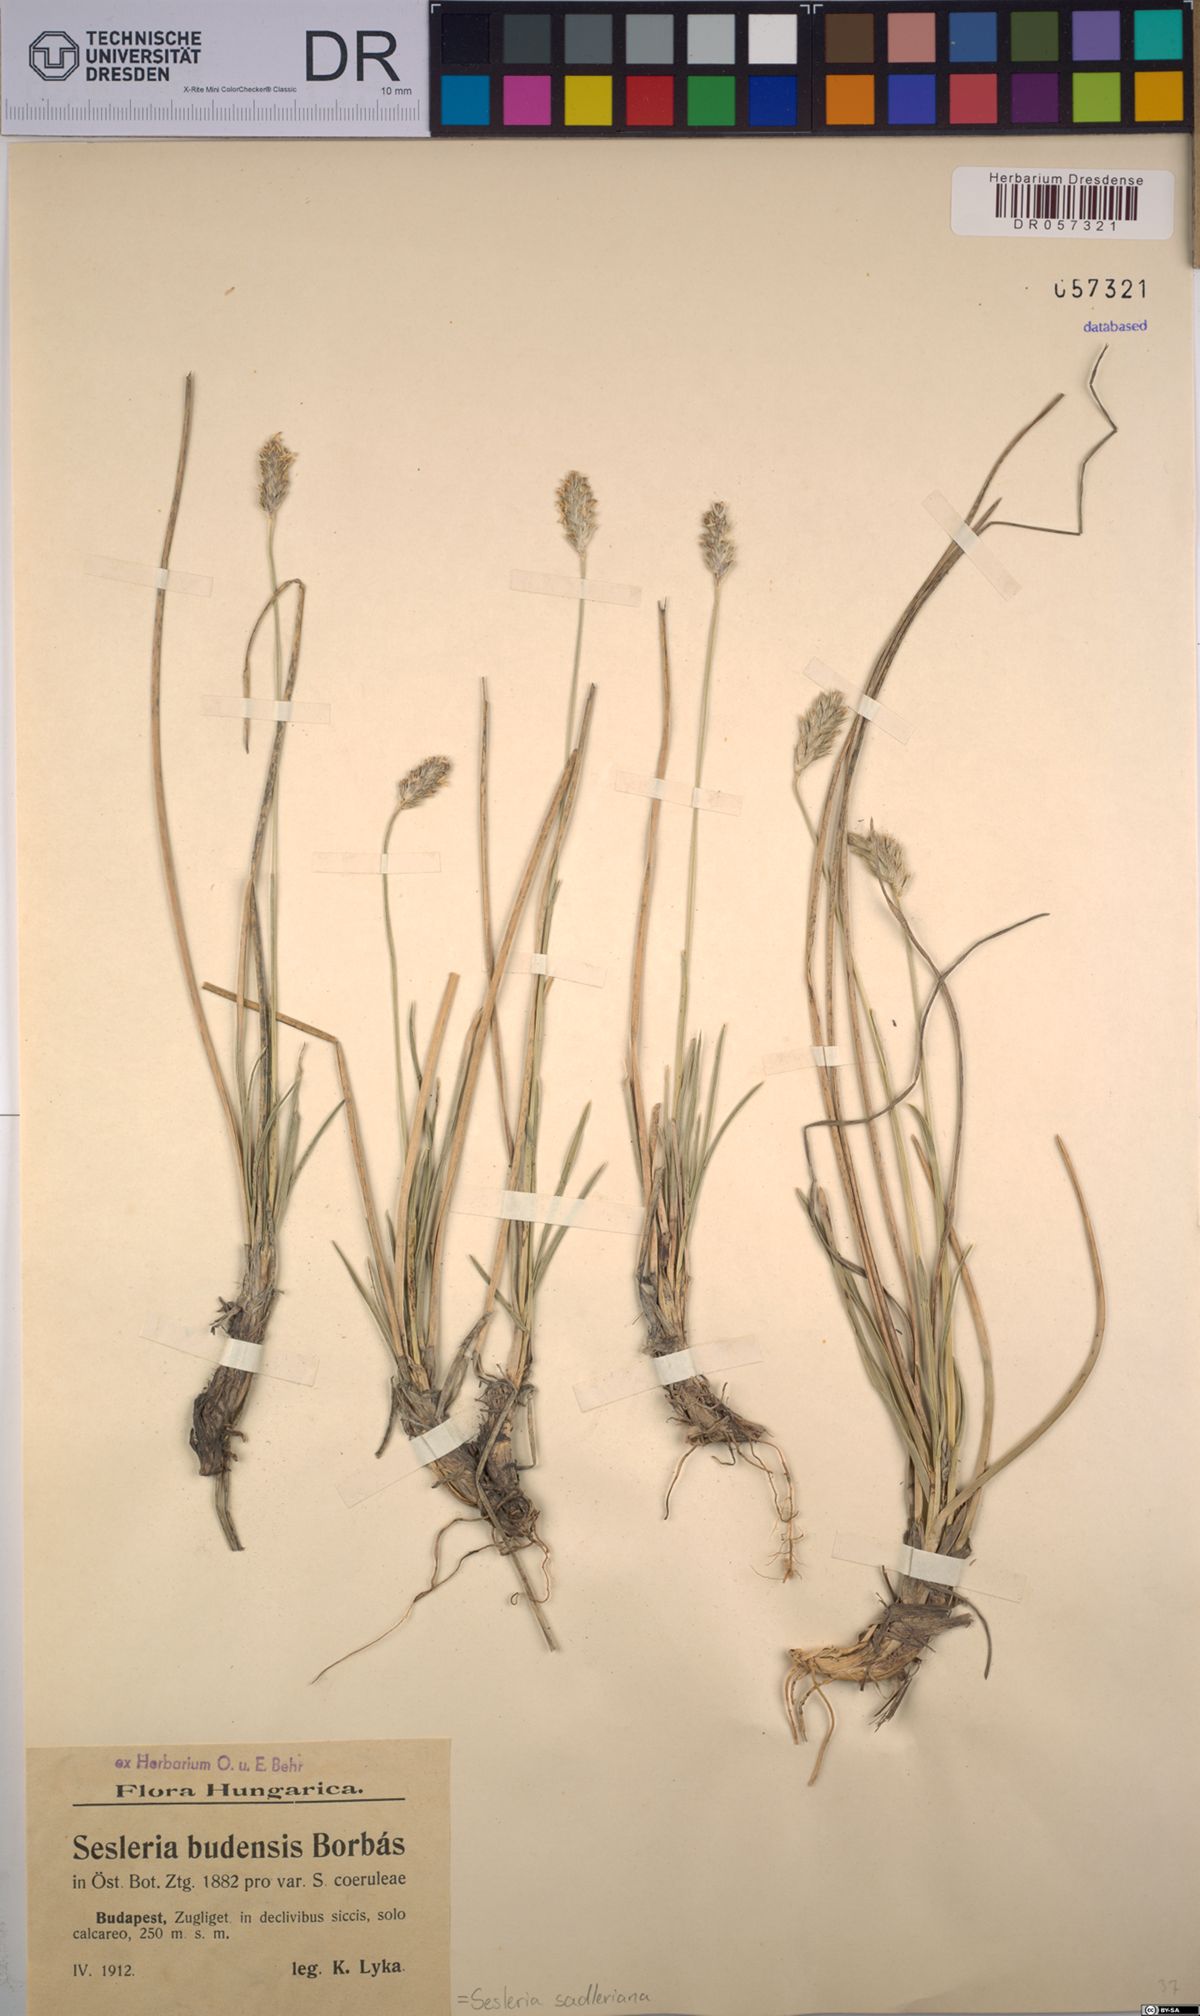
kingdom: Plantae
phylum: Tracheophyta
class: Liliopsida
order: Poales
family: Poaceae
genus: Sesleria
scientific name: Sesleria sadleriana
